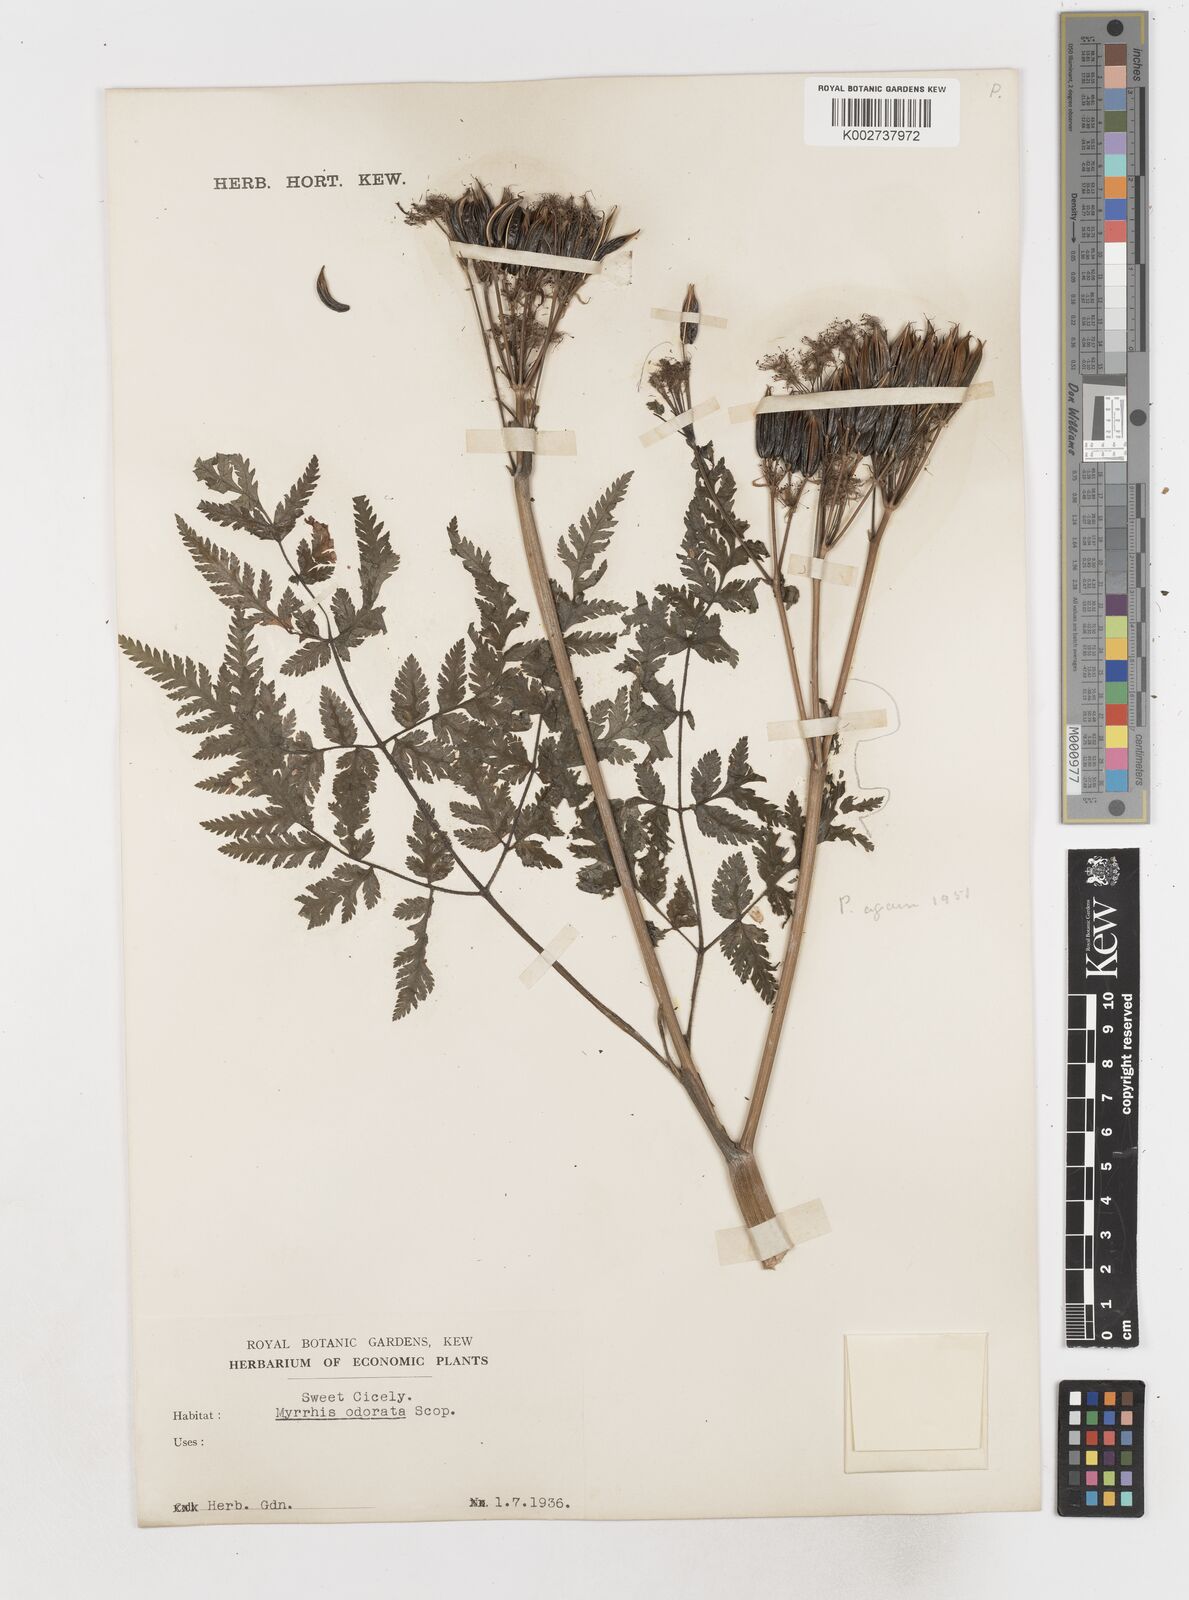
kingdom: Plantae
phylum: Tracheophyta
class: Magnoliopsida
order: Apiales
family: Apiaceae
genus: Myrrhis
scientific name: Myrrhis odorata
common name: Sweet cicely
